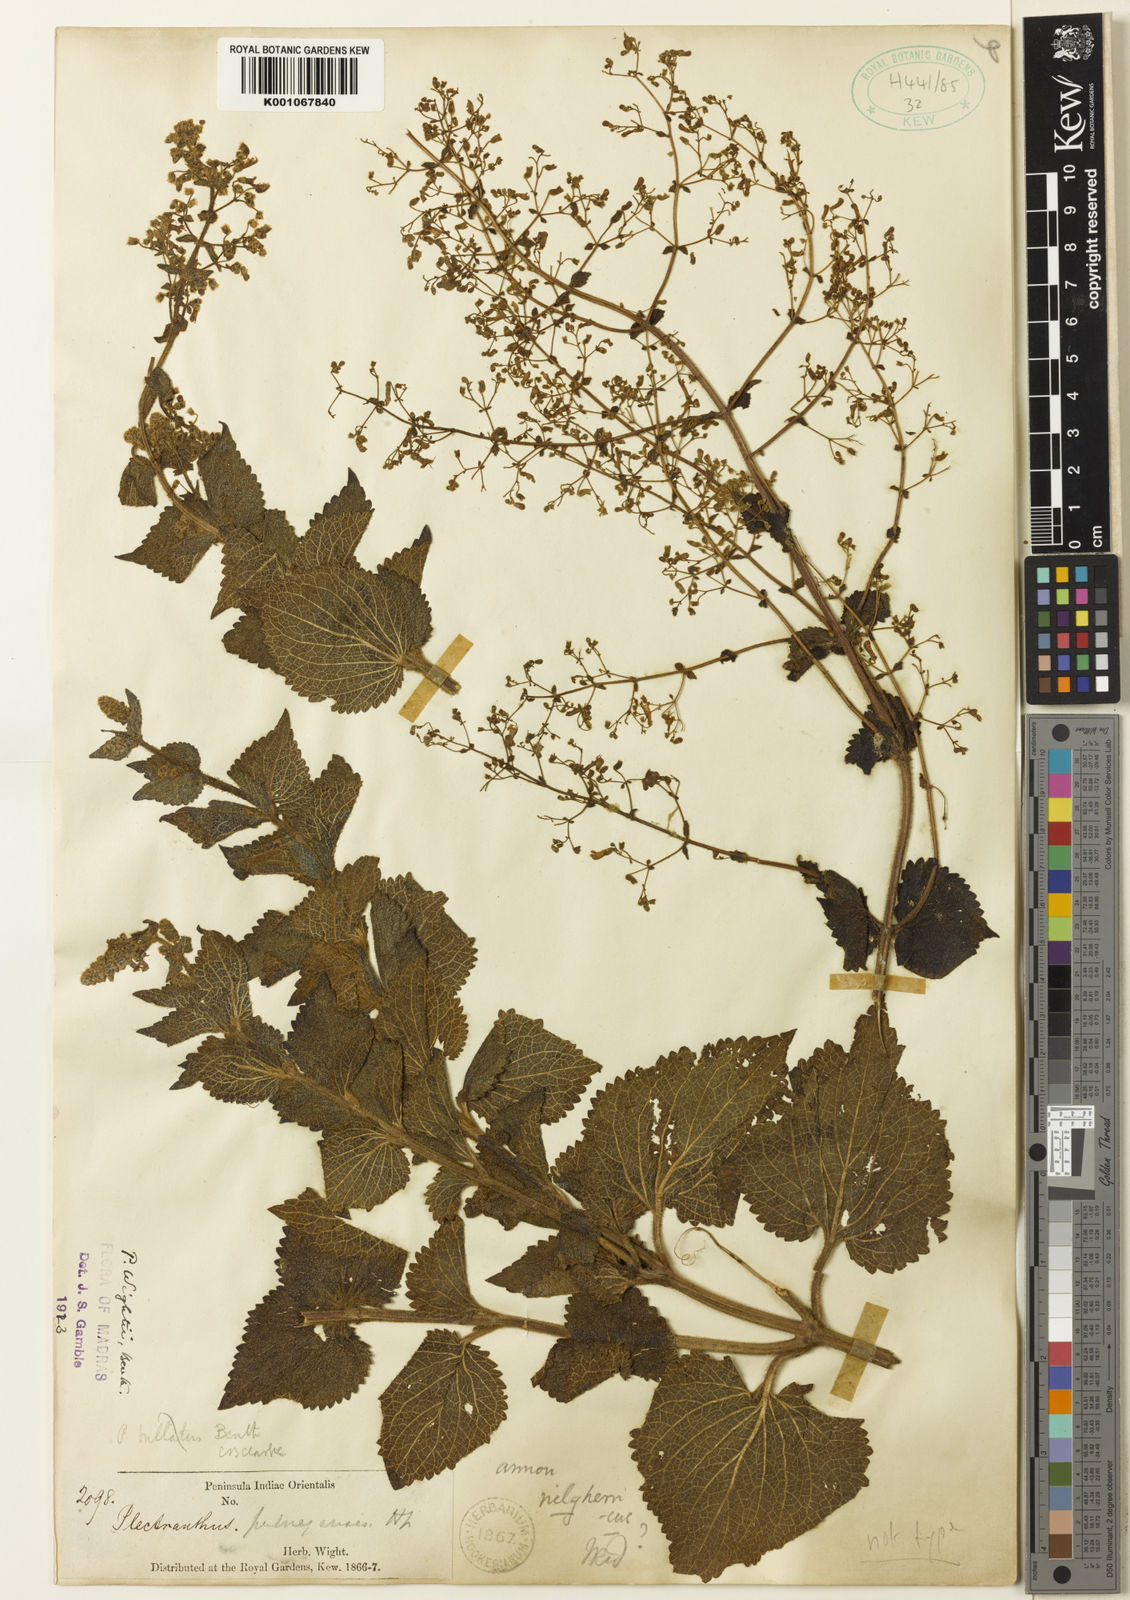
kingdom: Plantae
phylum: Tracheophyta
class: Magnoliopsida
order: Lamiales
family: Lamiaceae
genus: Isodon
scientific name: Isodon wightii
